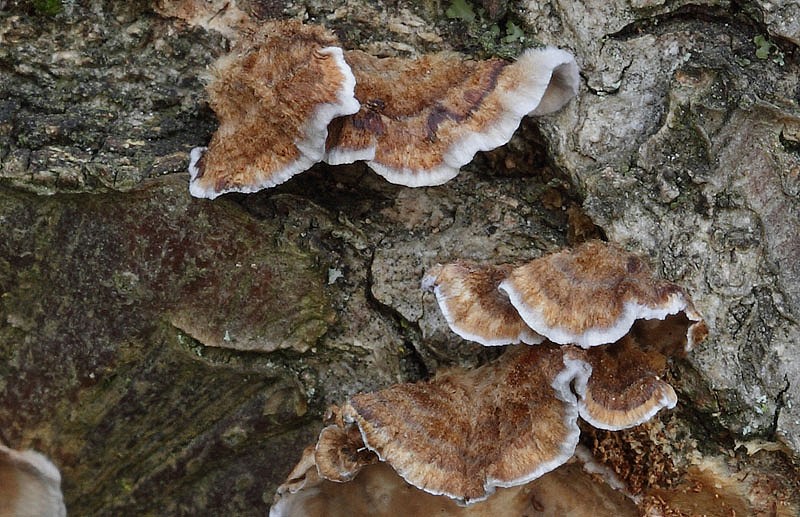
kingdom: Fungi
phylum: Basidiomycota
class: Agaricomycetes
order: Russulales
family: Stereaceae
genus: Stereum
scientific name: Stereum gausapatum
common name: tynd lædersvamp
